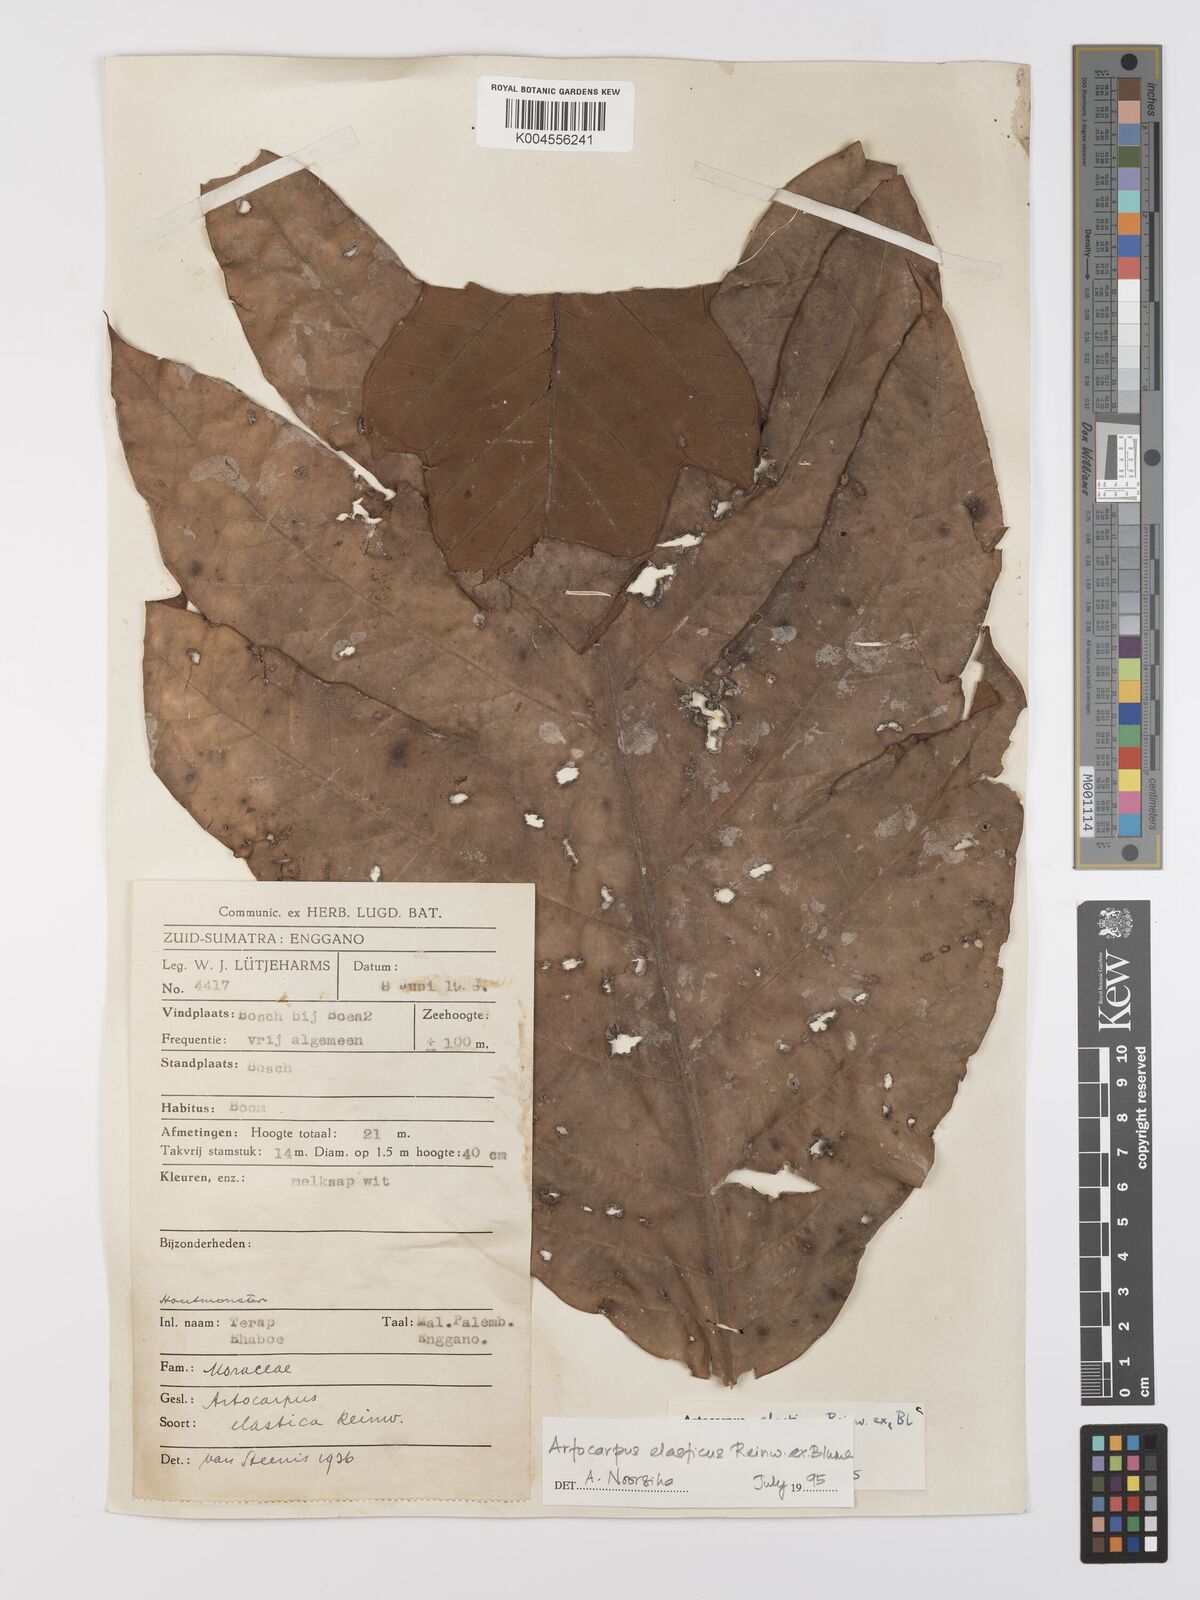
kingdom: Plantae
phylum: Tracheophyta
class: Magnoliopsida
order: Rosales
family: Moraceae
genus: Artocarpus
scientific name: Artocarpus elasticus
